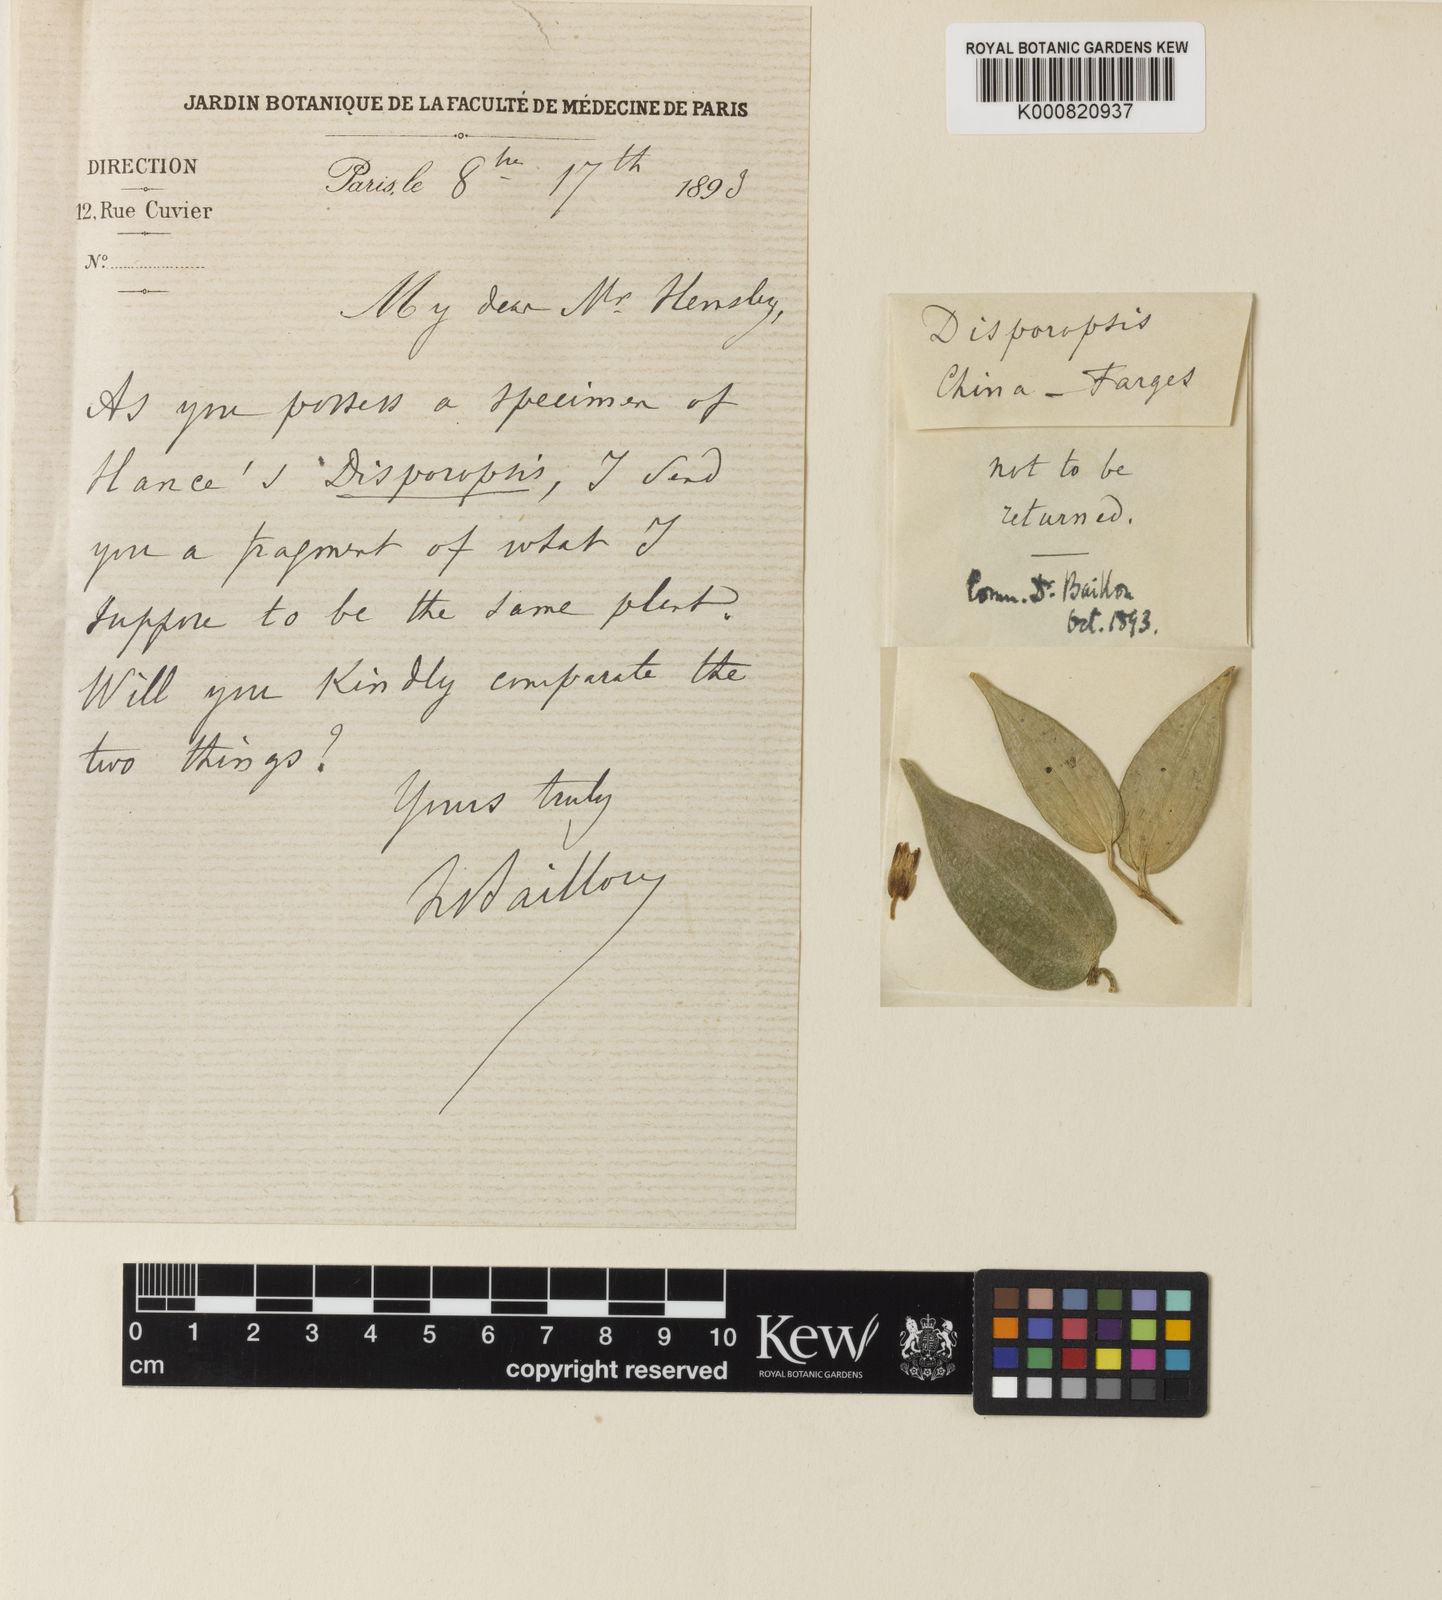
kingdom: Plantae
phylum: Tracheophyta
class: Liliopsida
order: Asparagales
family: Asparagaceae
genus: Disporopsis
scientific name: Disporopsis
